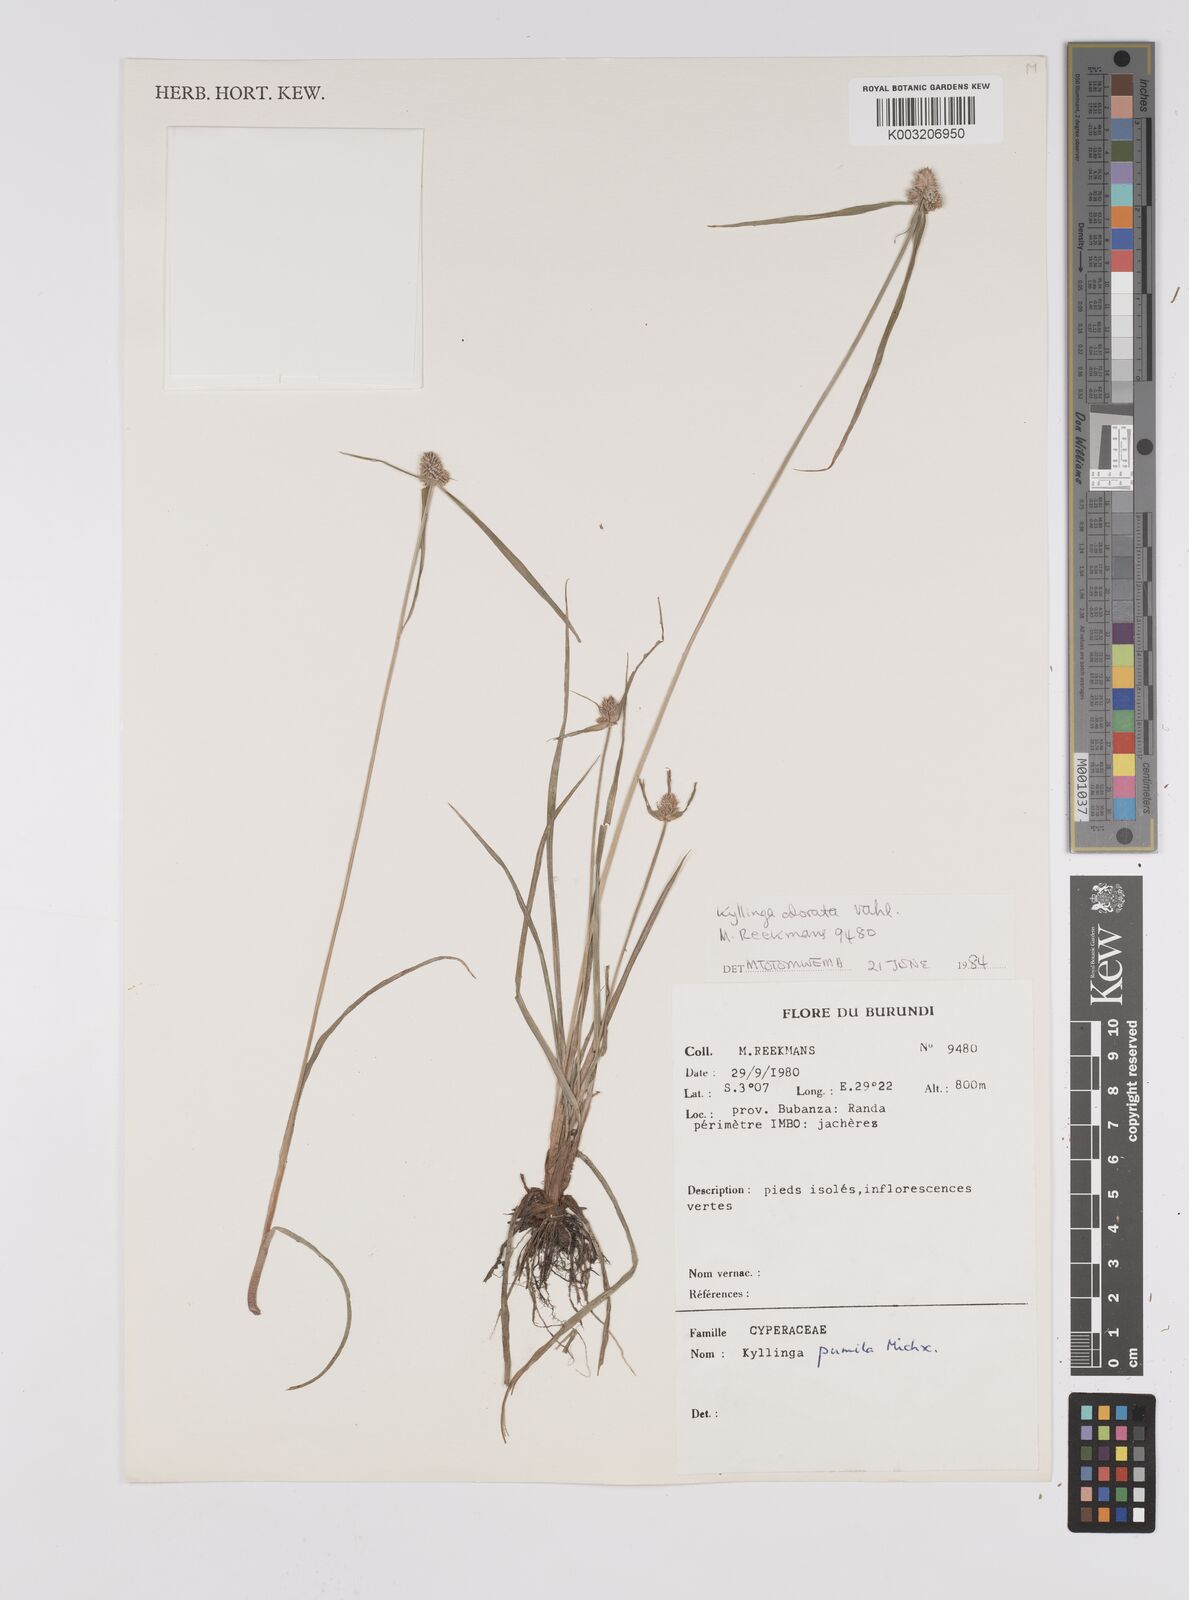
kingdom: Plantae
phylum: Tracheophyta
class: Liliopsida
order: Poales
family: Cyperaceae
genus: Cyperus
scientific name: Cyperus hortensis
